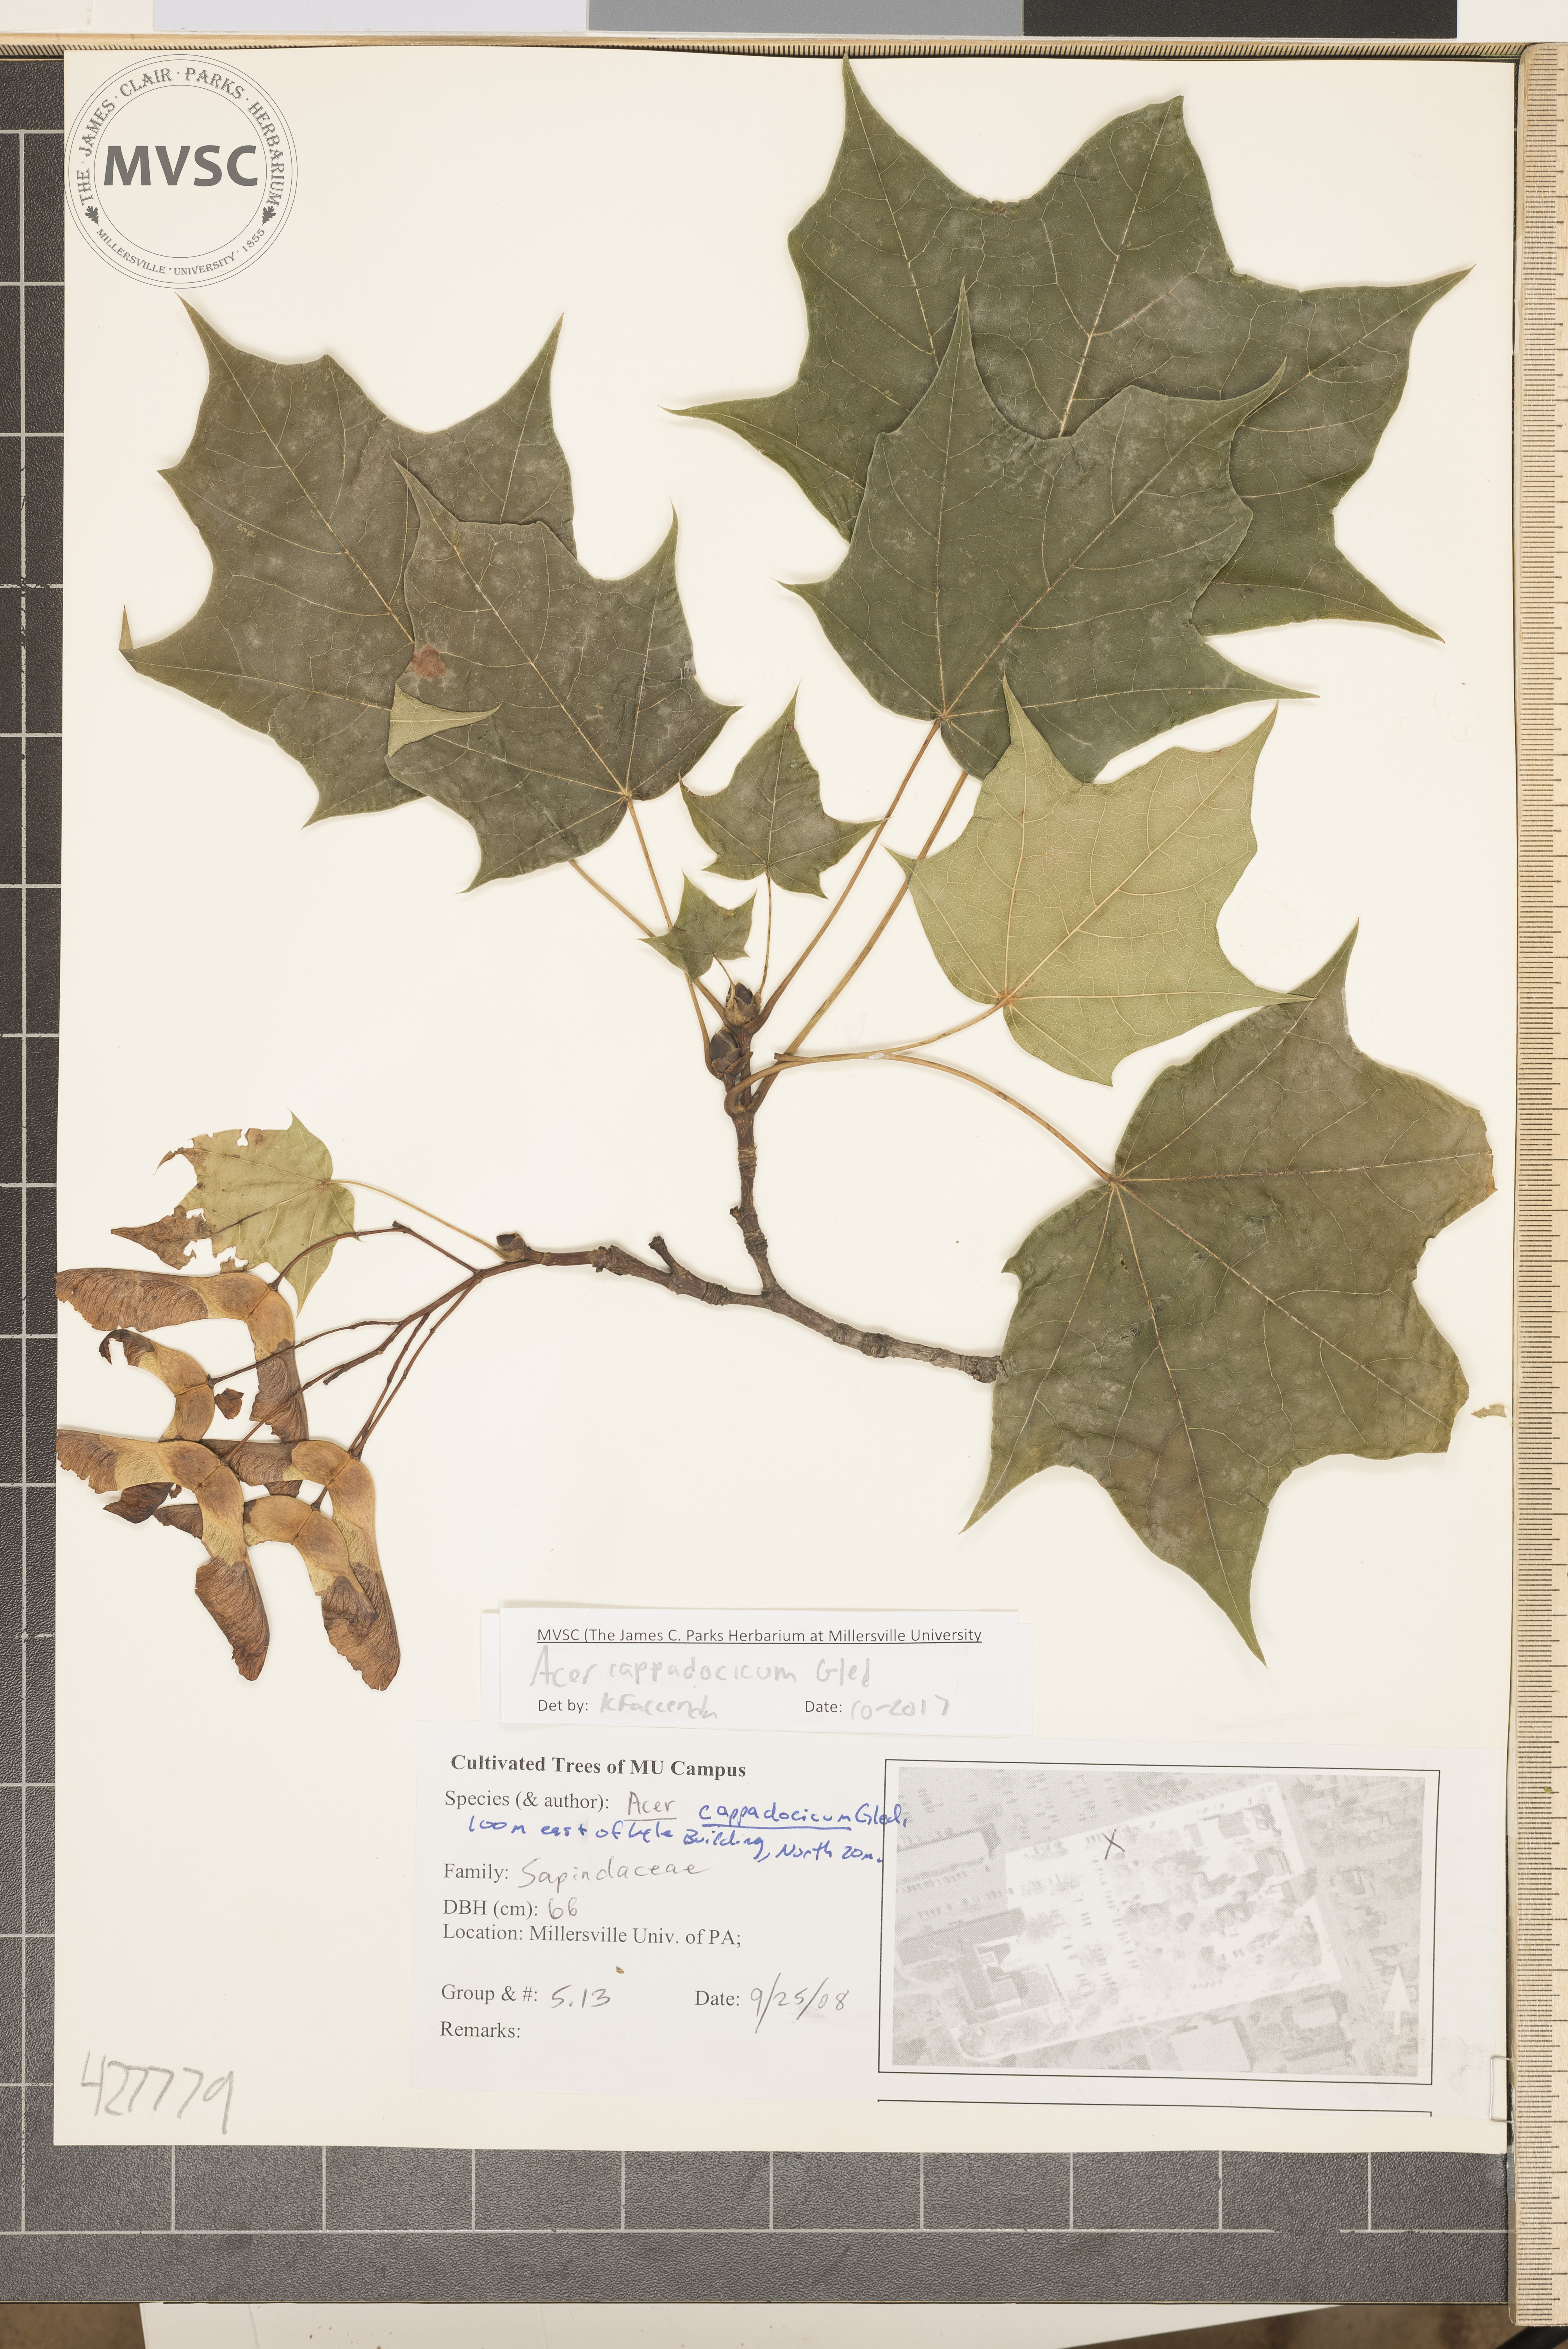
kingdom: Plantae
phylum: Tracheophyta
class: Magnoliopsida
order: Sapindales
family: Sapindaceae
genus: Acer
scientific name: Acer cappadocicum
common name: Cappadocian maple
